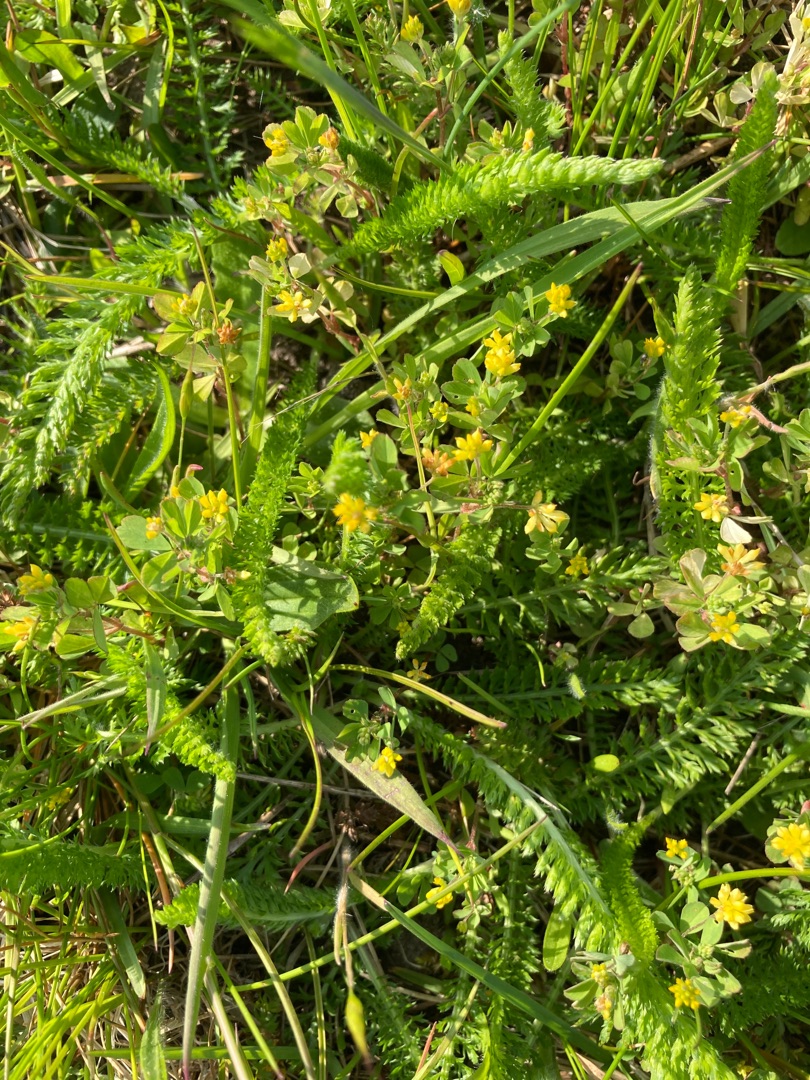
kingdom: Plantae
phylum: Tracheophyta
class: Magnoliopsida
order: Fabales
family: Fabaceae
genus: Trifolium
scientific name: Trifolium dubium
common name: Fin kløver
